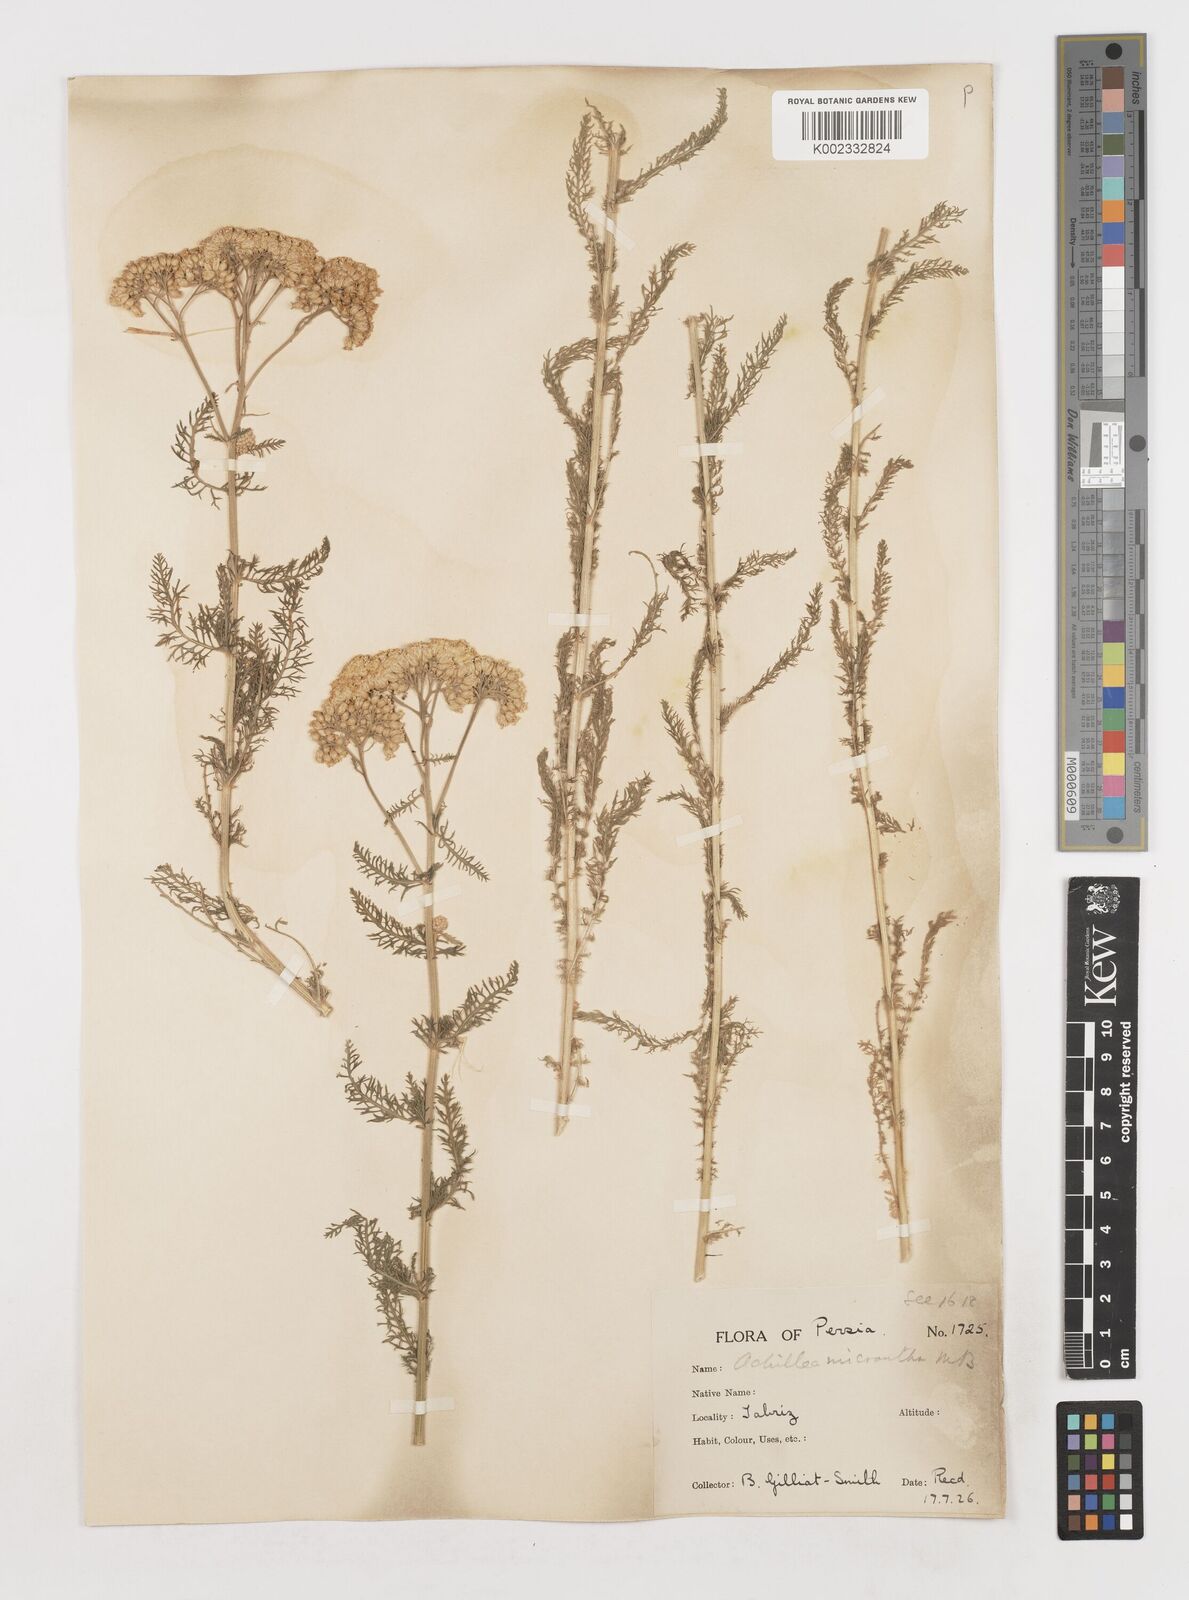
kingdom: Plantae
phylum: Tracheophyta
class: Magnoliopsida
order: Asterales
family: Asteraceae
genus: Achillea
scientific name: Achillea arabica
